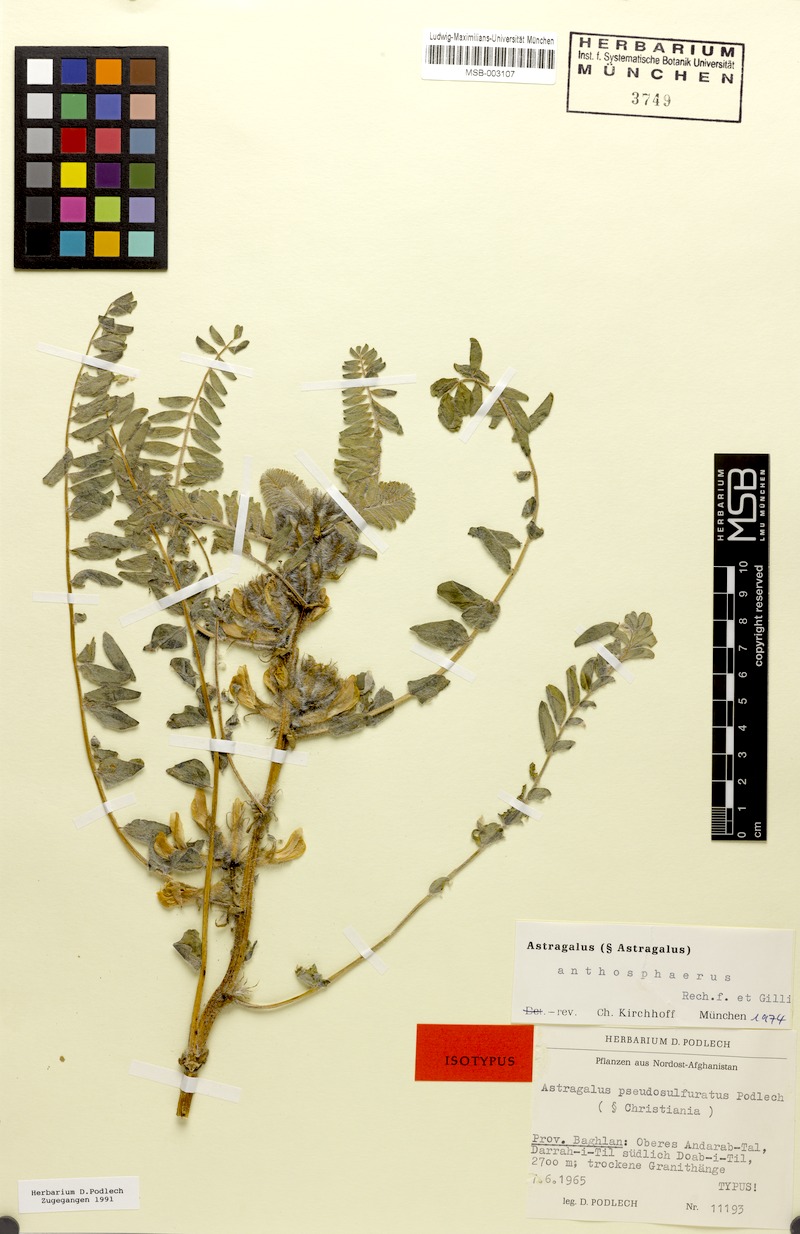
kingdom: Plantae
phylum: Tracheophyta
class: Magnoliopsida
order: Fabales
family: Fabaceae
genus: Astragalus
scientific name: Astragalus anthosphaerus
